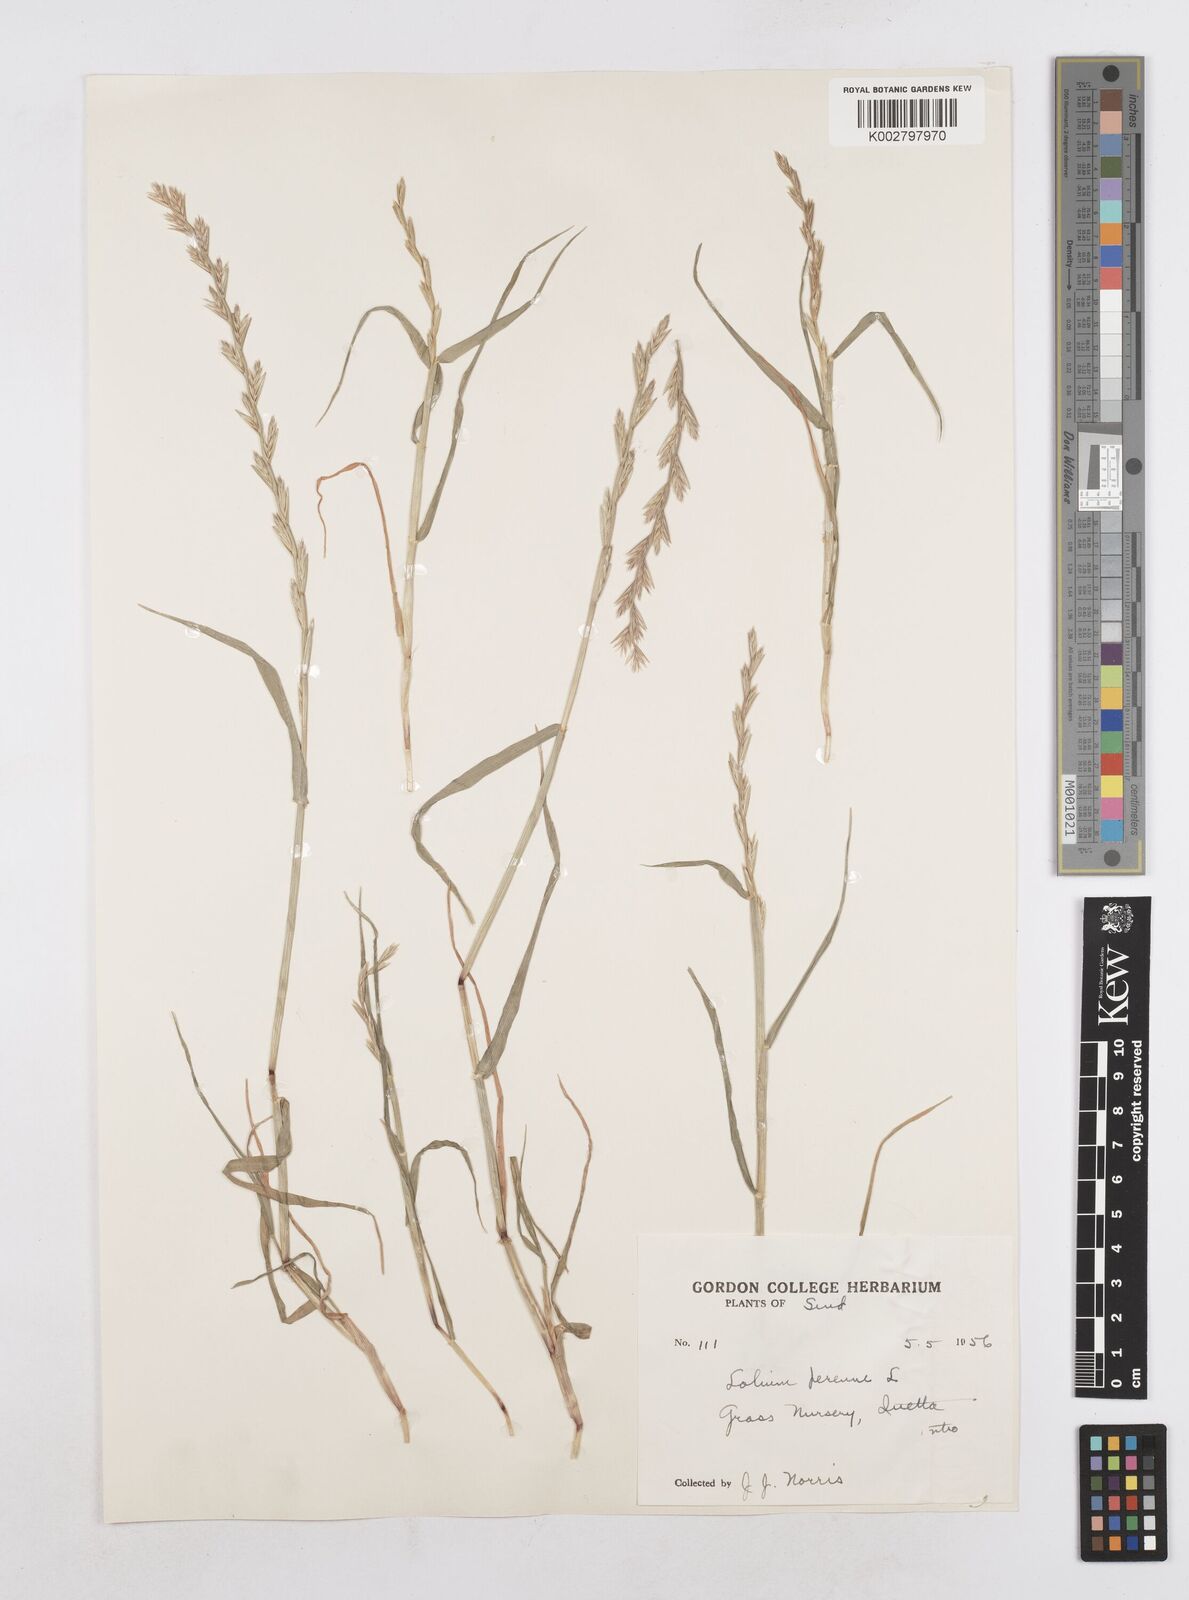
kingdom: Plantae
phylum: Tracheophyta
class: Liliopsida
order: Poales
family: Poaceae
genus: Lolium
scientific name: Lolium perenne
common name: Perennial ryegrass
